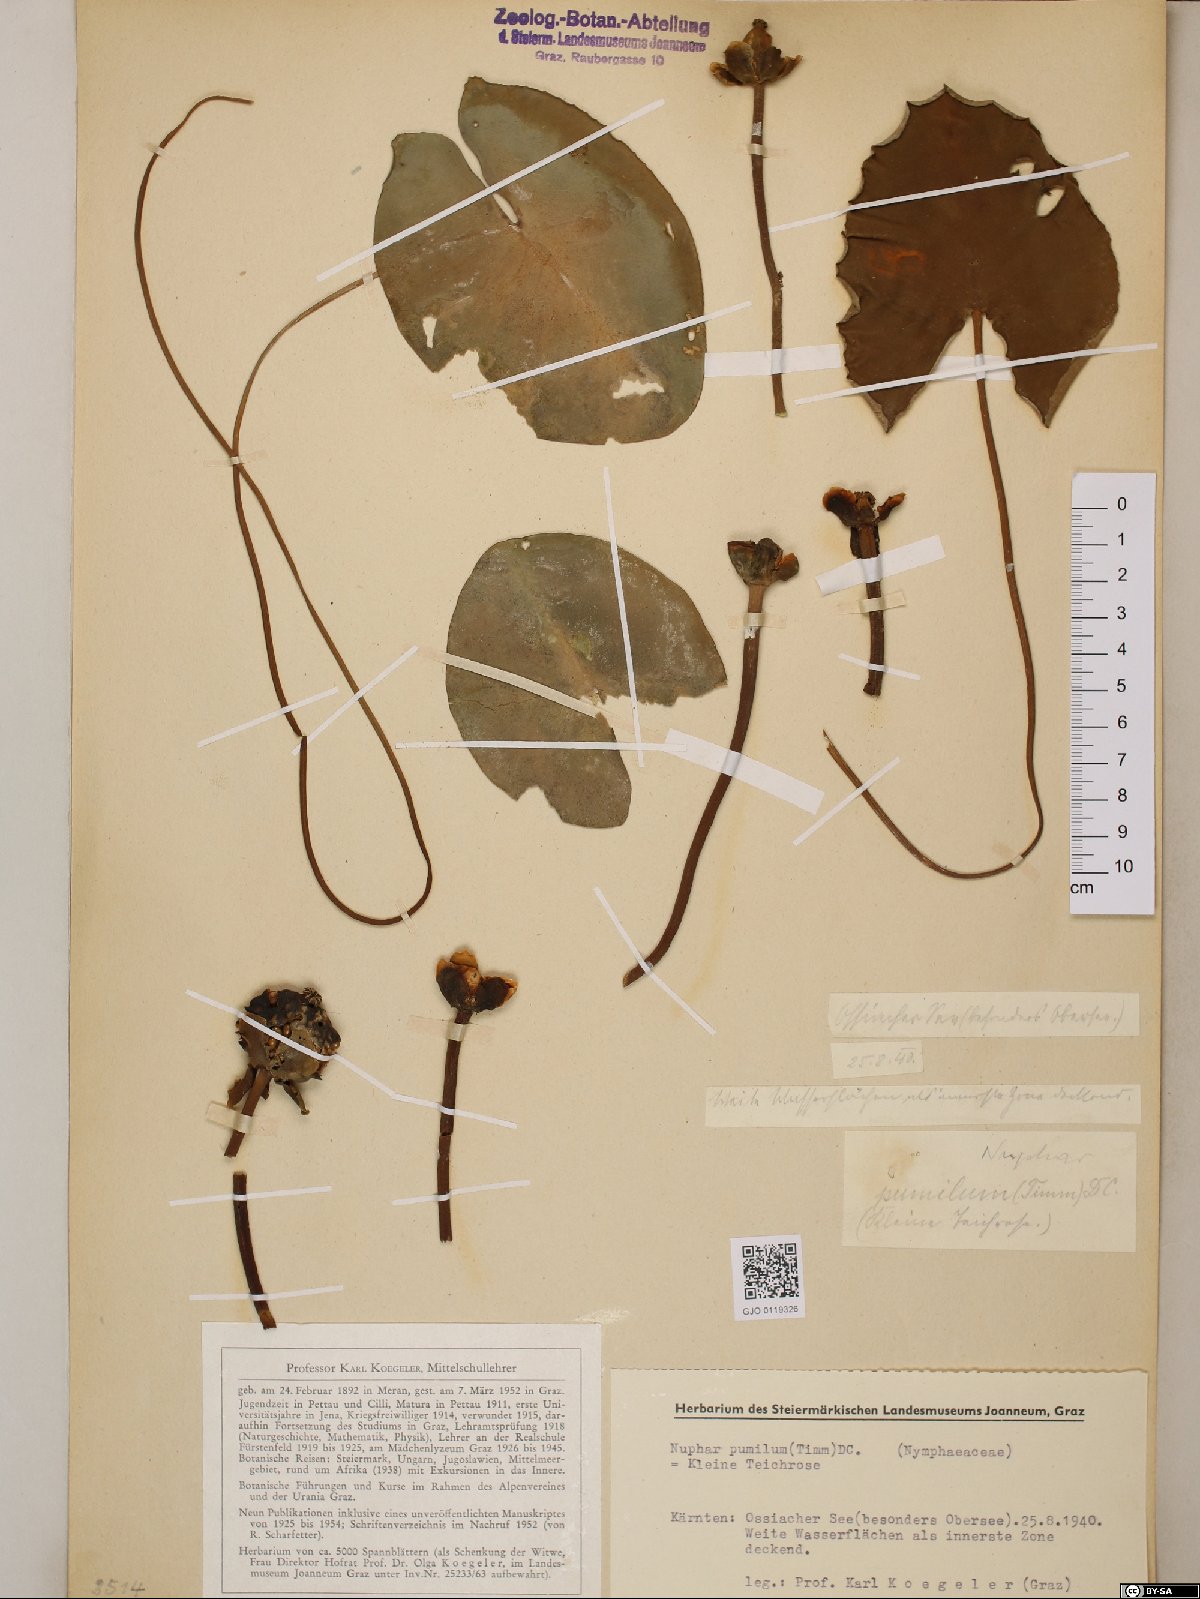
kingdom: Plantae
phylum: Tracheophyta
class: Magnoliopsida
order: Nymphaeales
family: Nymphaeaceae
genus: Nuphar
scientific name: Nuphar pumila
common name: Least water-lily
